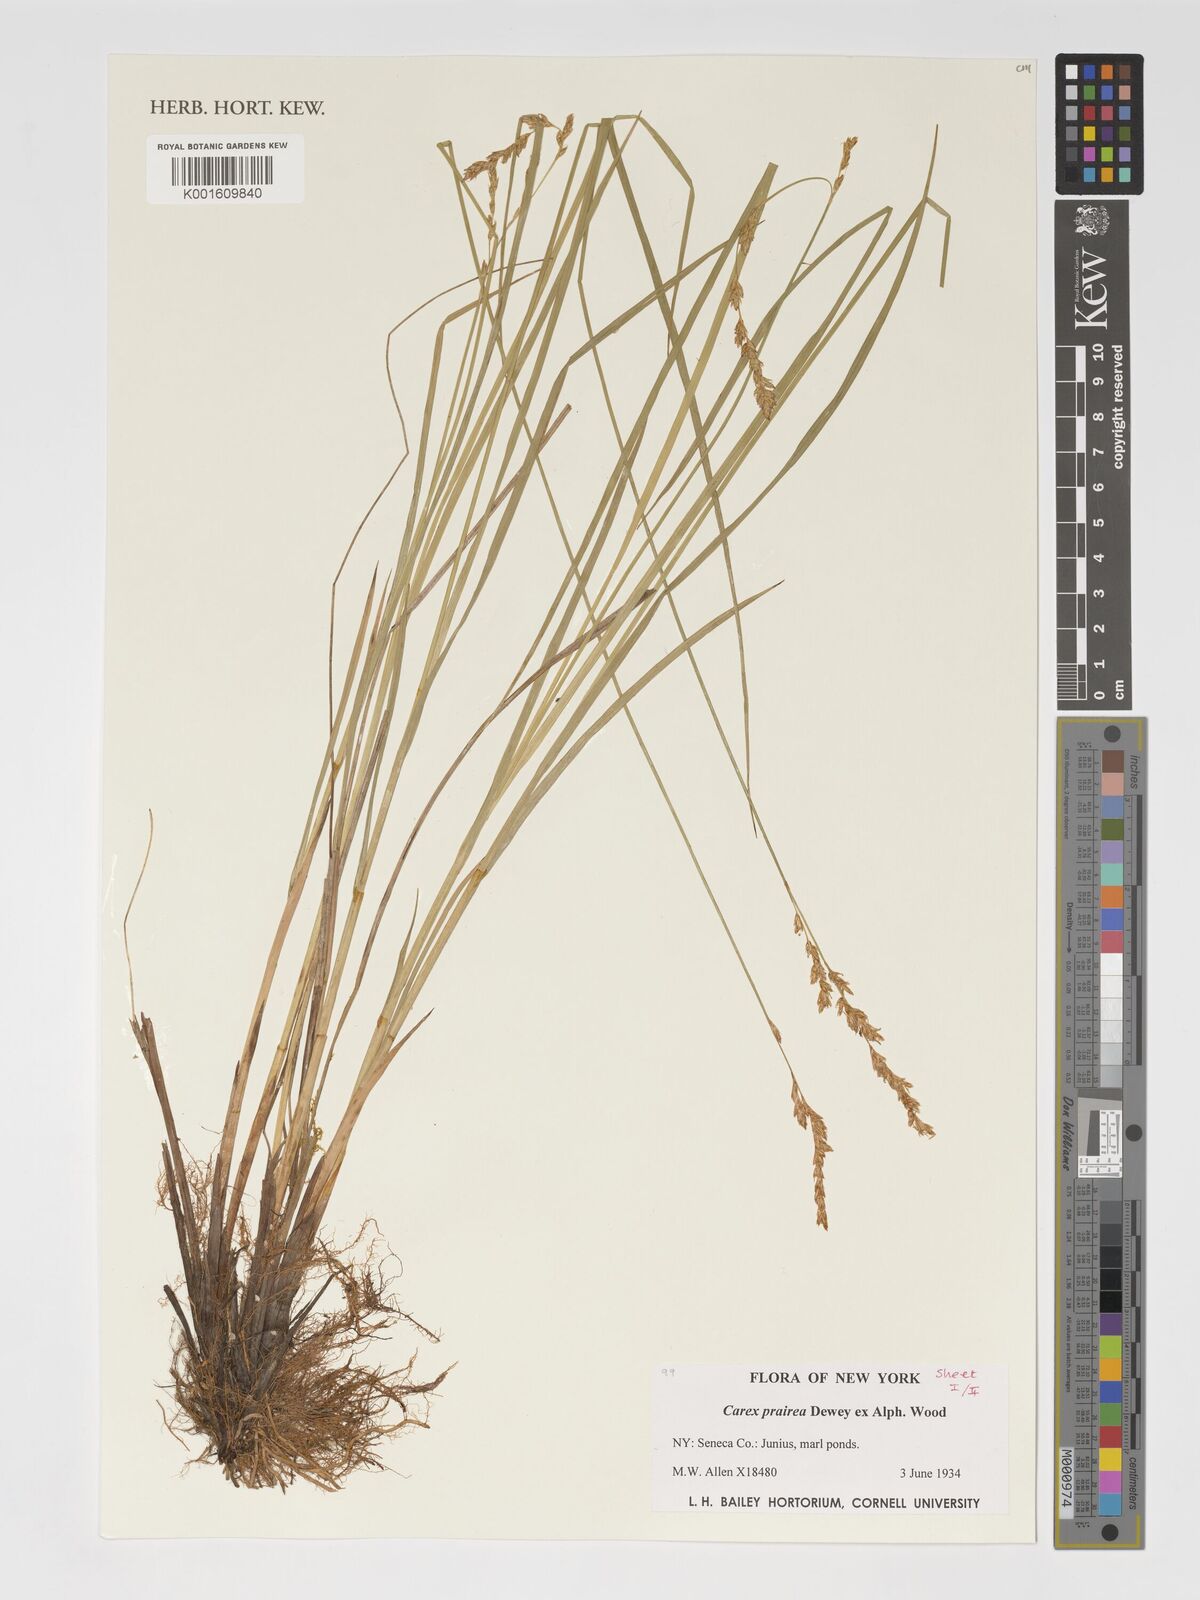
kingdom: Plantae
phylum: Tracheophyta
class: Liliopsida
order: Poales
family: Cyperaceae
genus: Carex
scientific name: Carex prairea
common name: Prairie sedge
